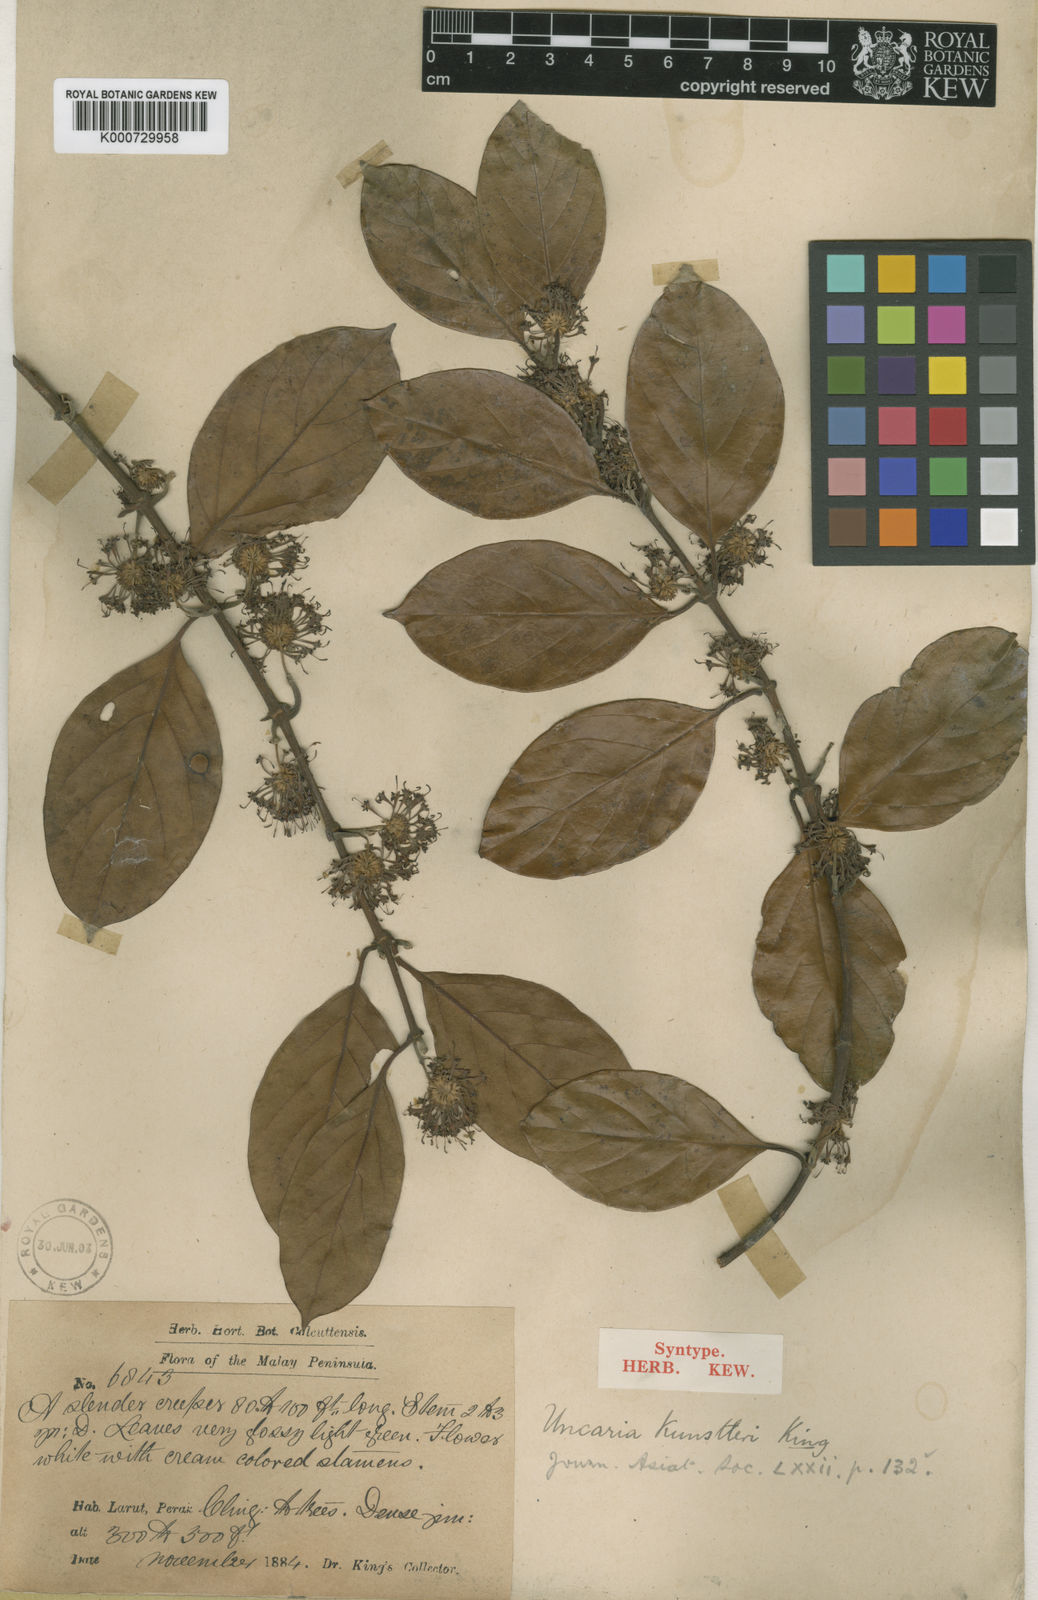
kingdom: Plantae
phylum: Tracheophyta
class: Magnoliopsida
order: Gentianales
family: Rubiaceae
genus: Uncaria
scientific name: Uncaria kunstleri
